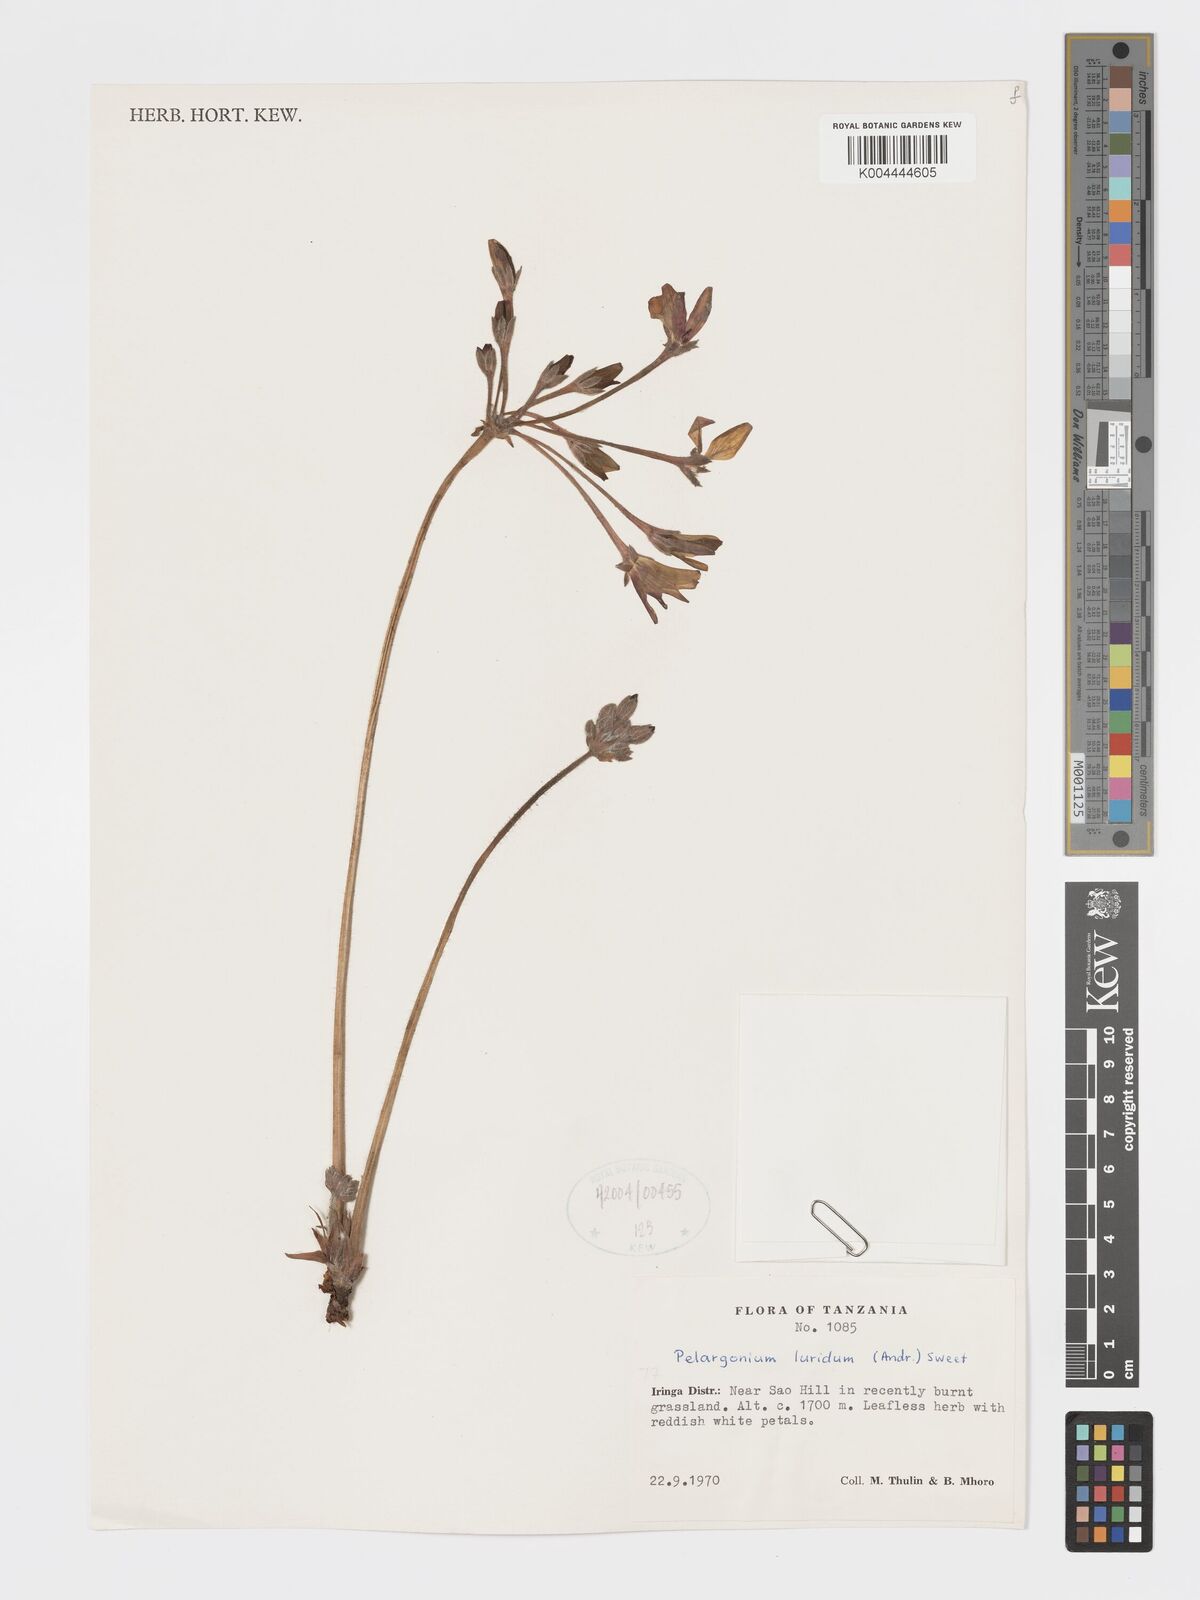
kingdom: Plantae
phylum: Tracheophyta
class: Magnoliopsida
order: Geraniales
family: Geraniaceae
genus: Pelargonium
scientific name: Pelargonium luridum
